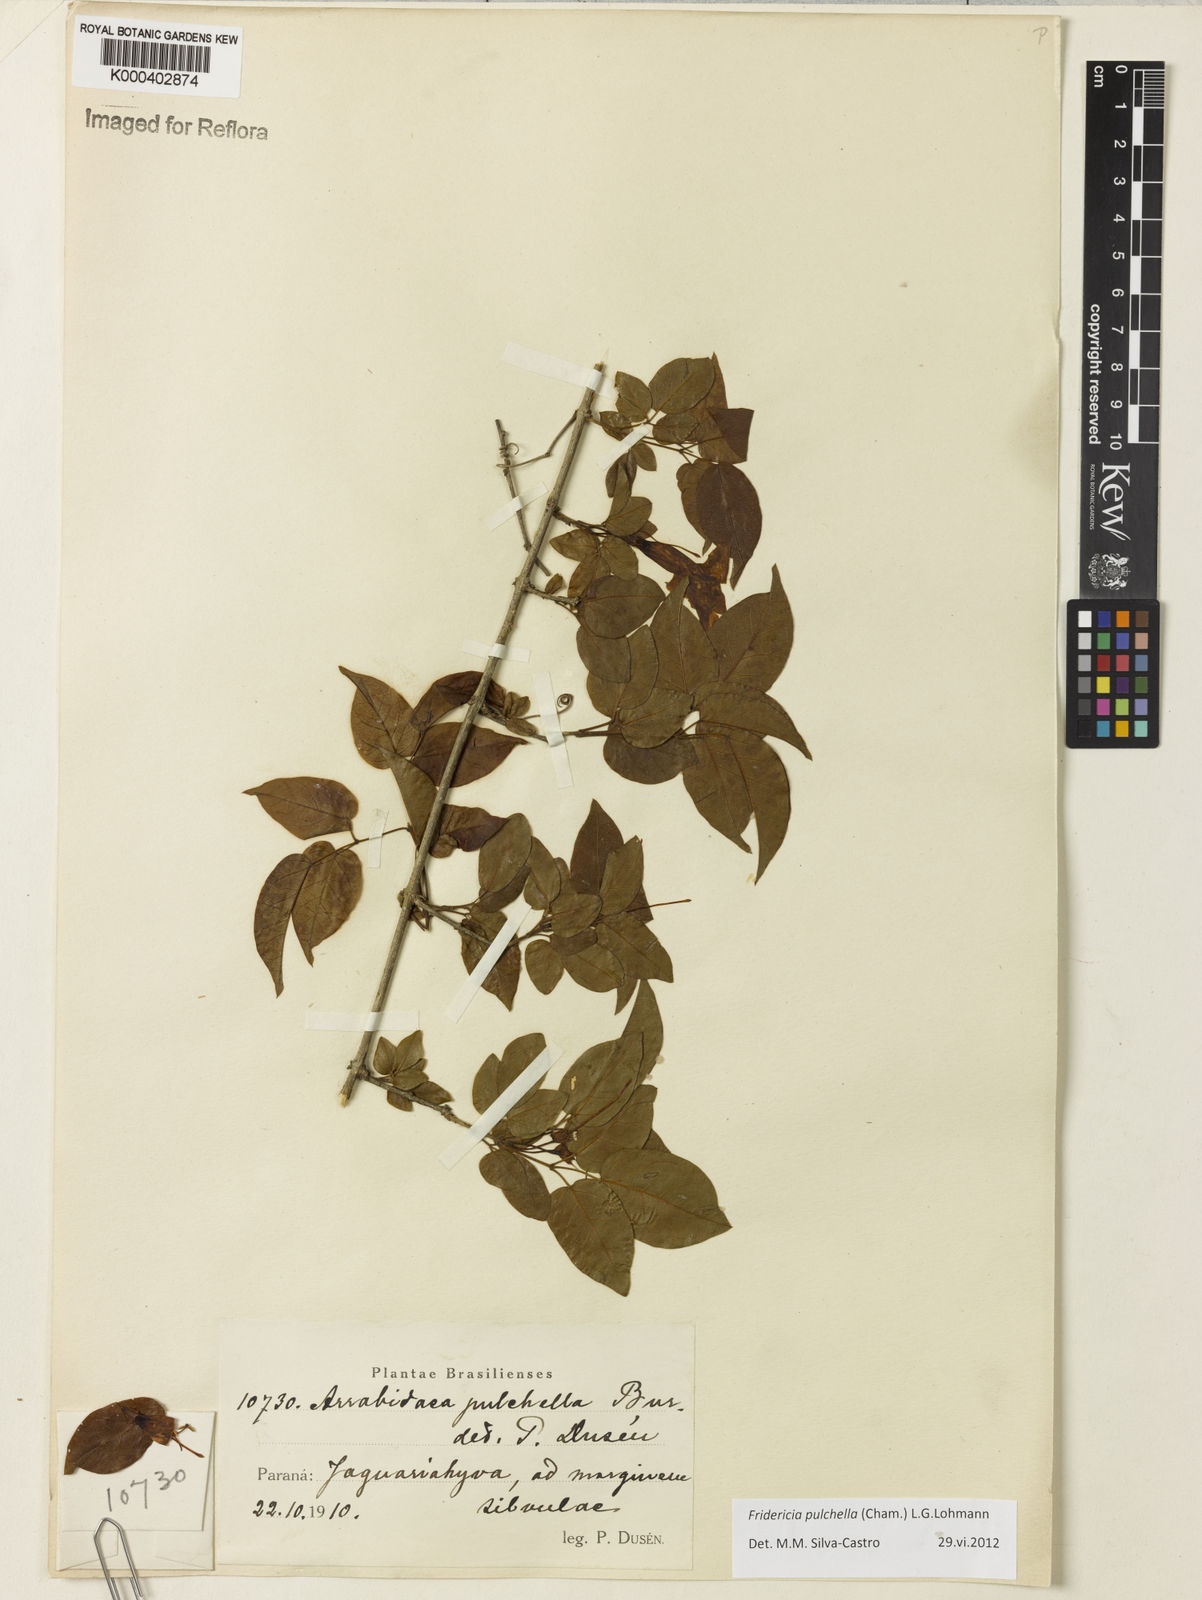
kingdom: Plantae
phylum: Tracheophyta
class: Magnoliopsida
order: Lamiales
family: Bignoniaceae
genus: Fridericia
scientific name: Fridericia
